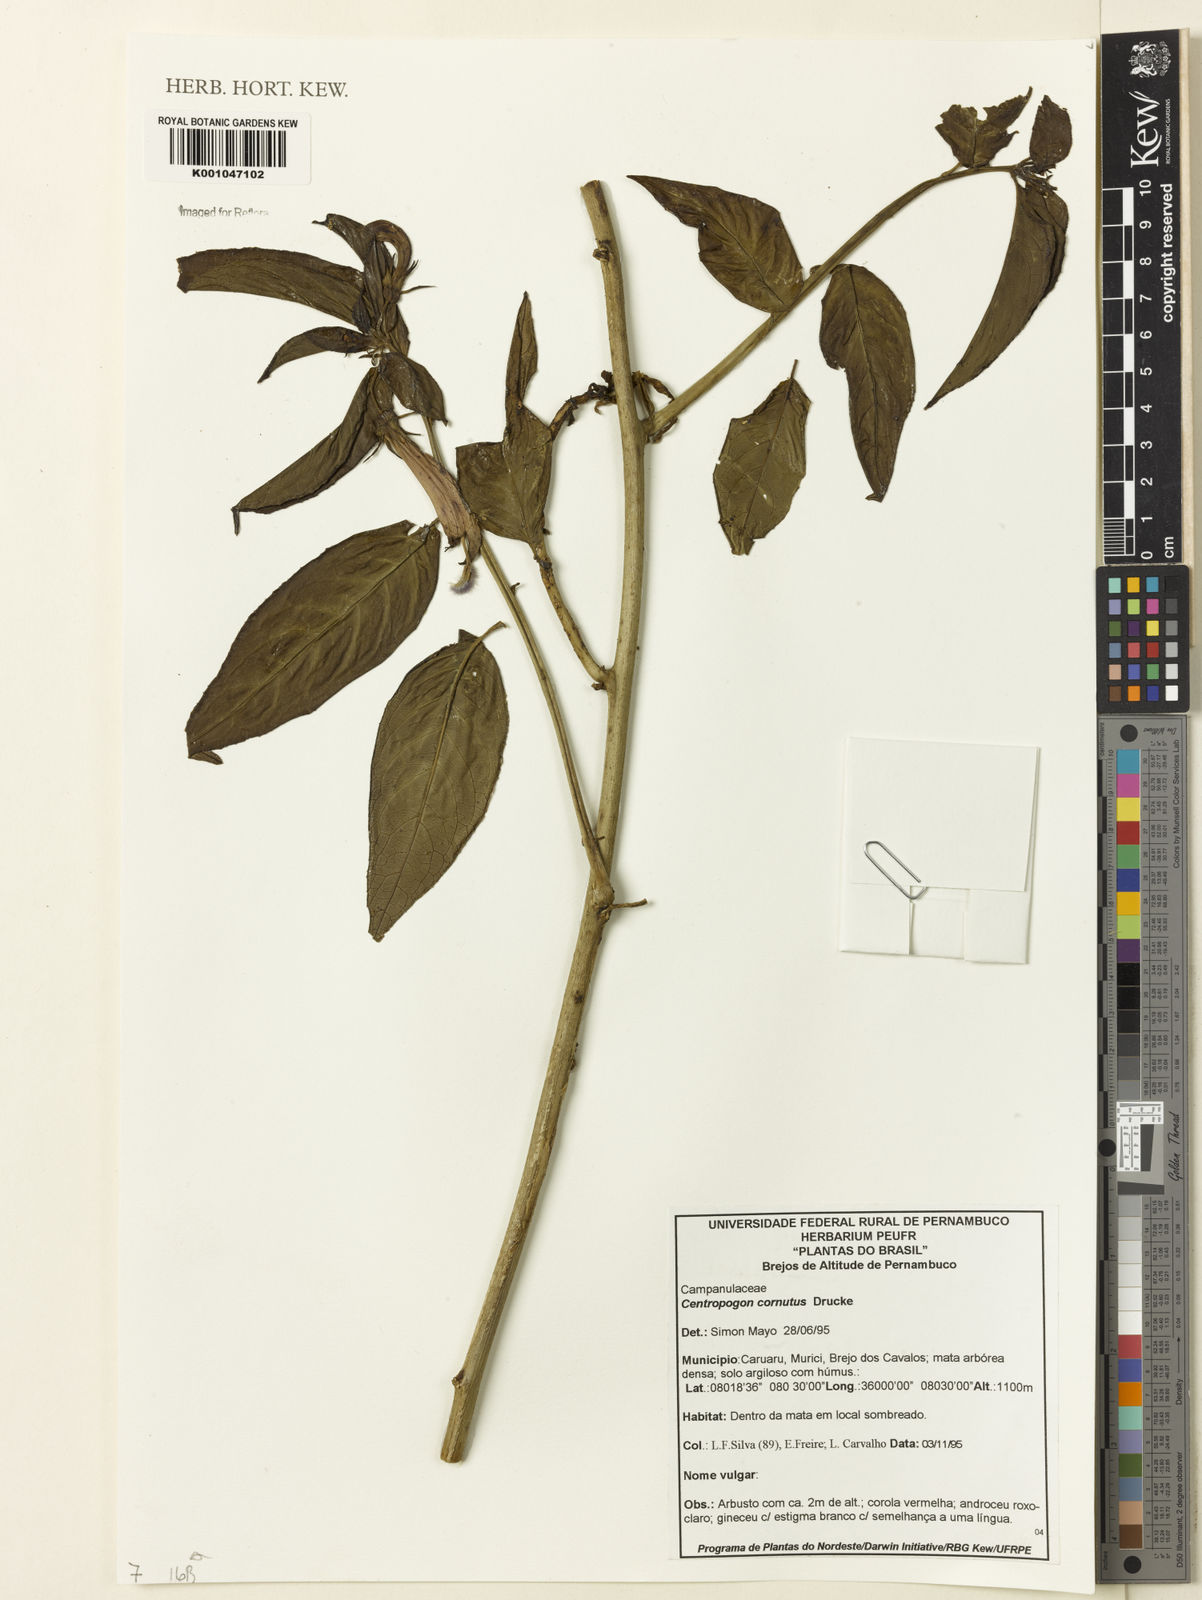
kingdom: Plantae
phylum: Tracheophyta
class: Magnoliopsida
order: Asterales
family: Campanulaceae
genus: Centropogon
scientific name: Centropogon cornutus
